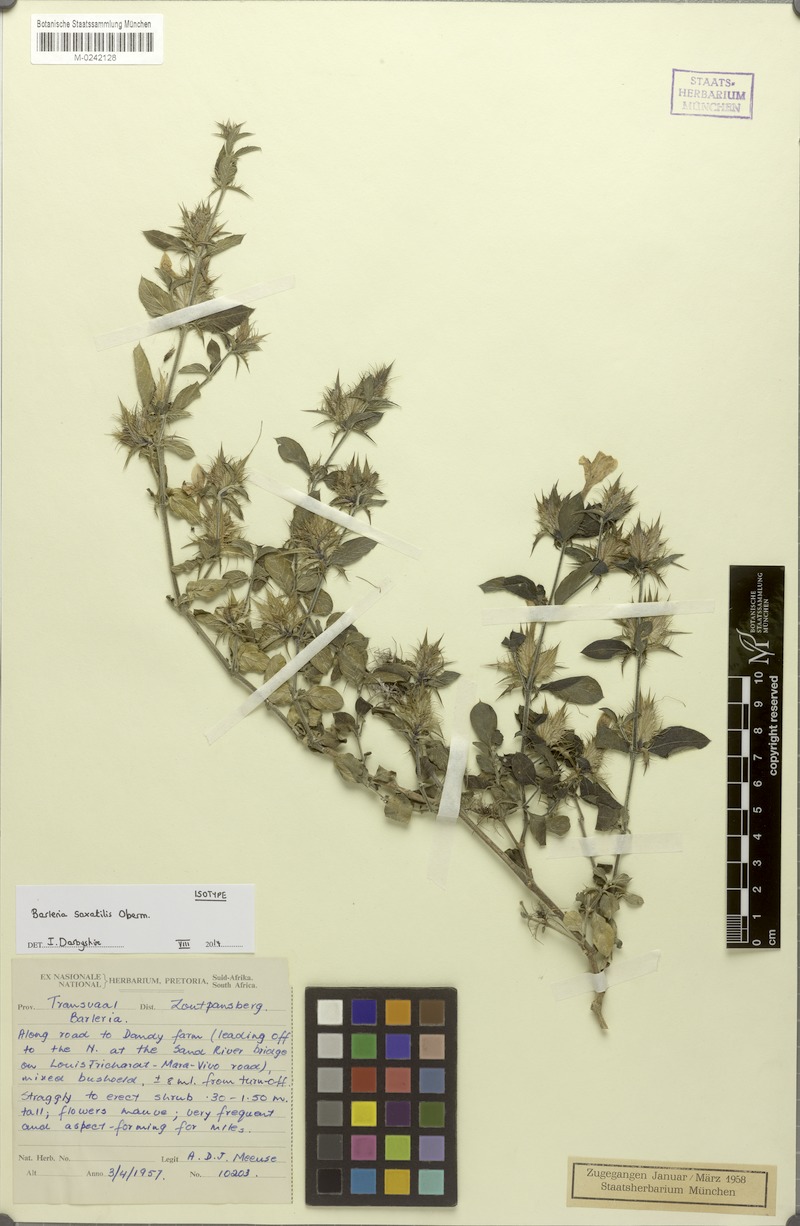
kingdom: Plantae
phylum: Tracheophyta
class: Magnoliopsida
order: Lamiales
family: Acanthaceae
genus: Barleria
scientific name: Barleria saxatilis
